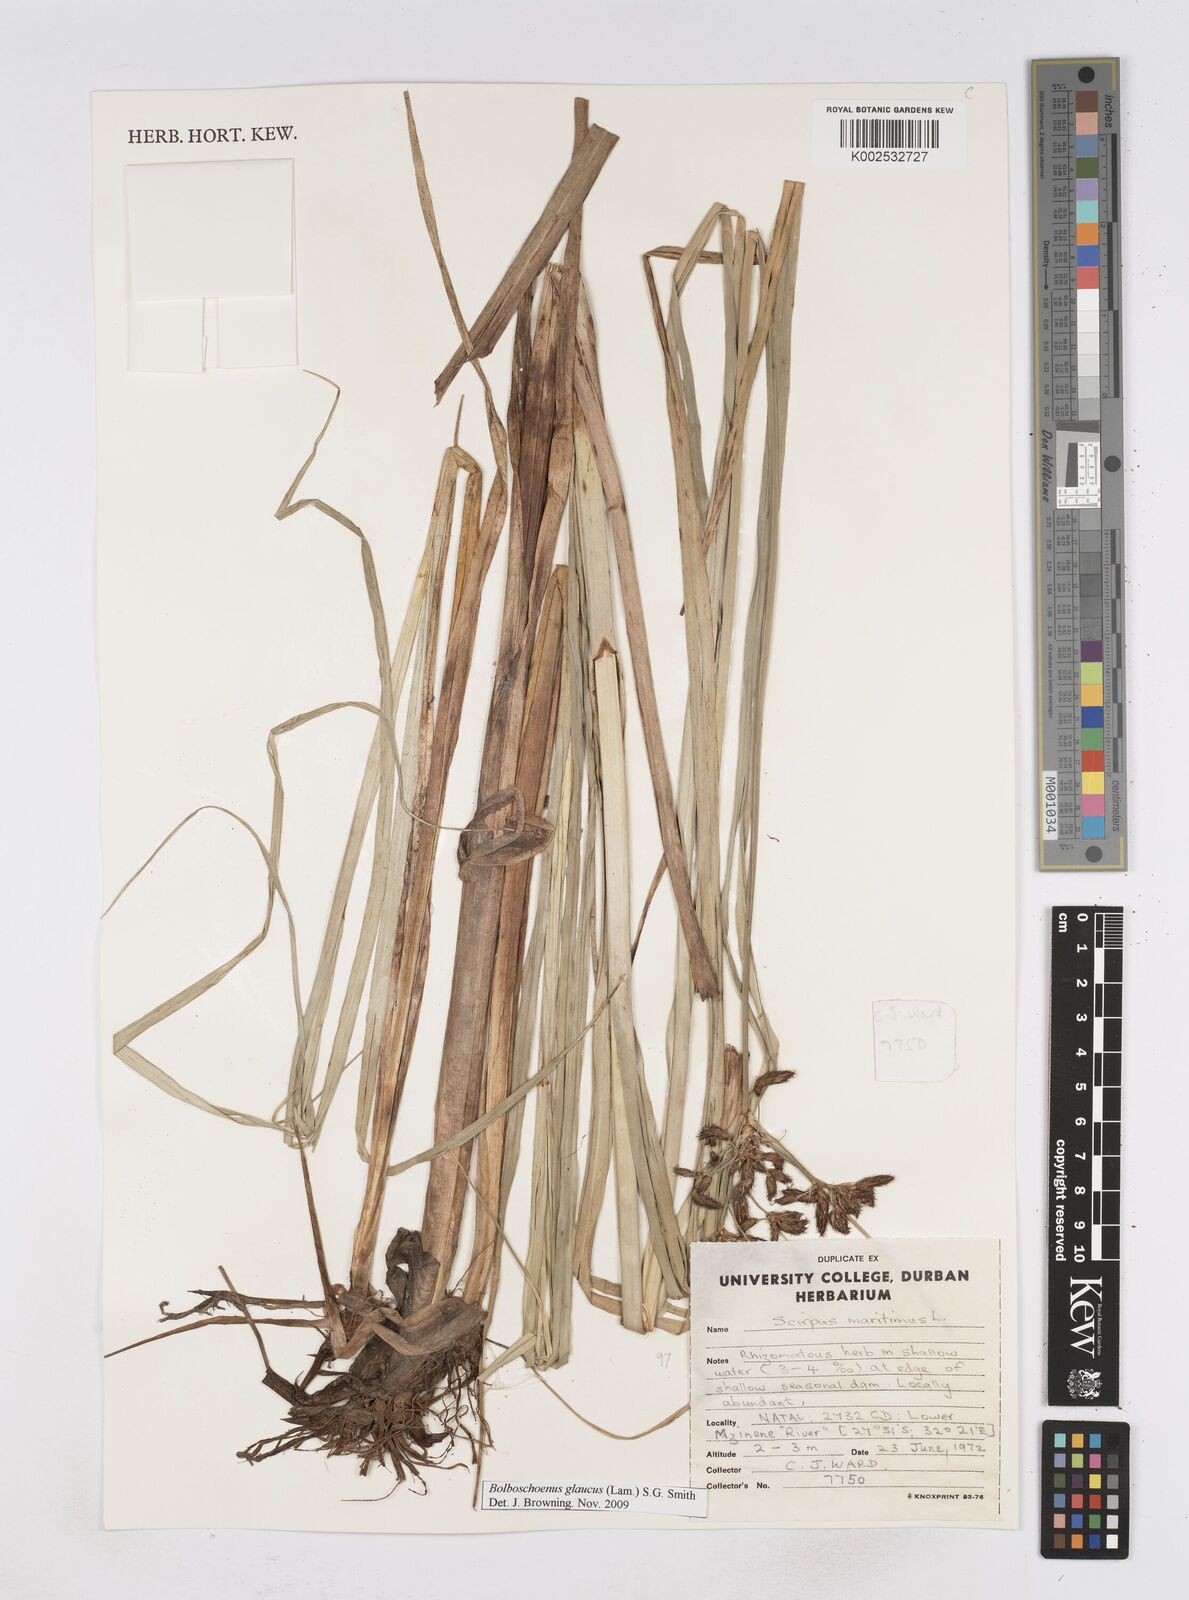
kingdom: Plantae
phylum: Tracheophyta
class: Liliopsida
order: Poales
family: Cyperaceae
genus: Bolboschoenus
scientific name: Bolboschoenus maritimus
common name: Sea club-rush
